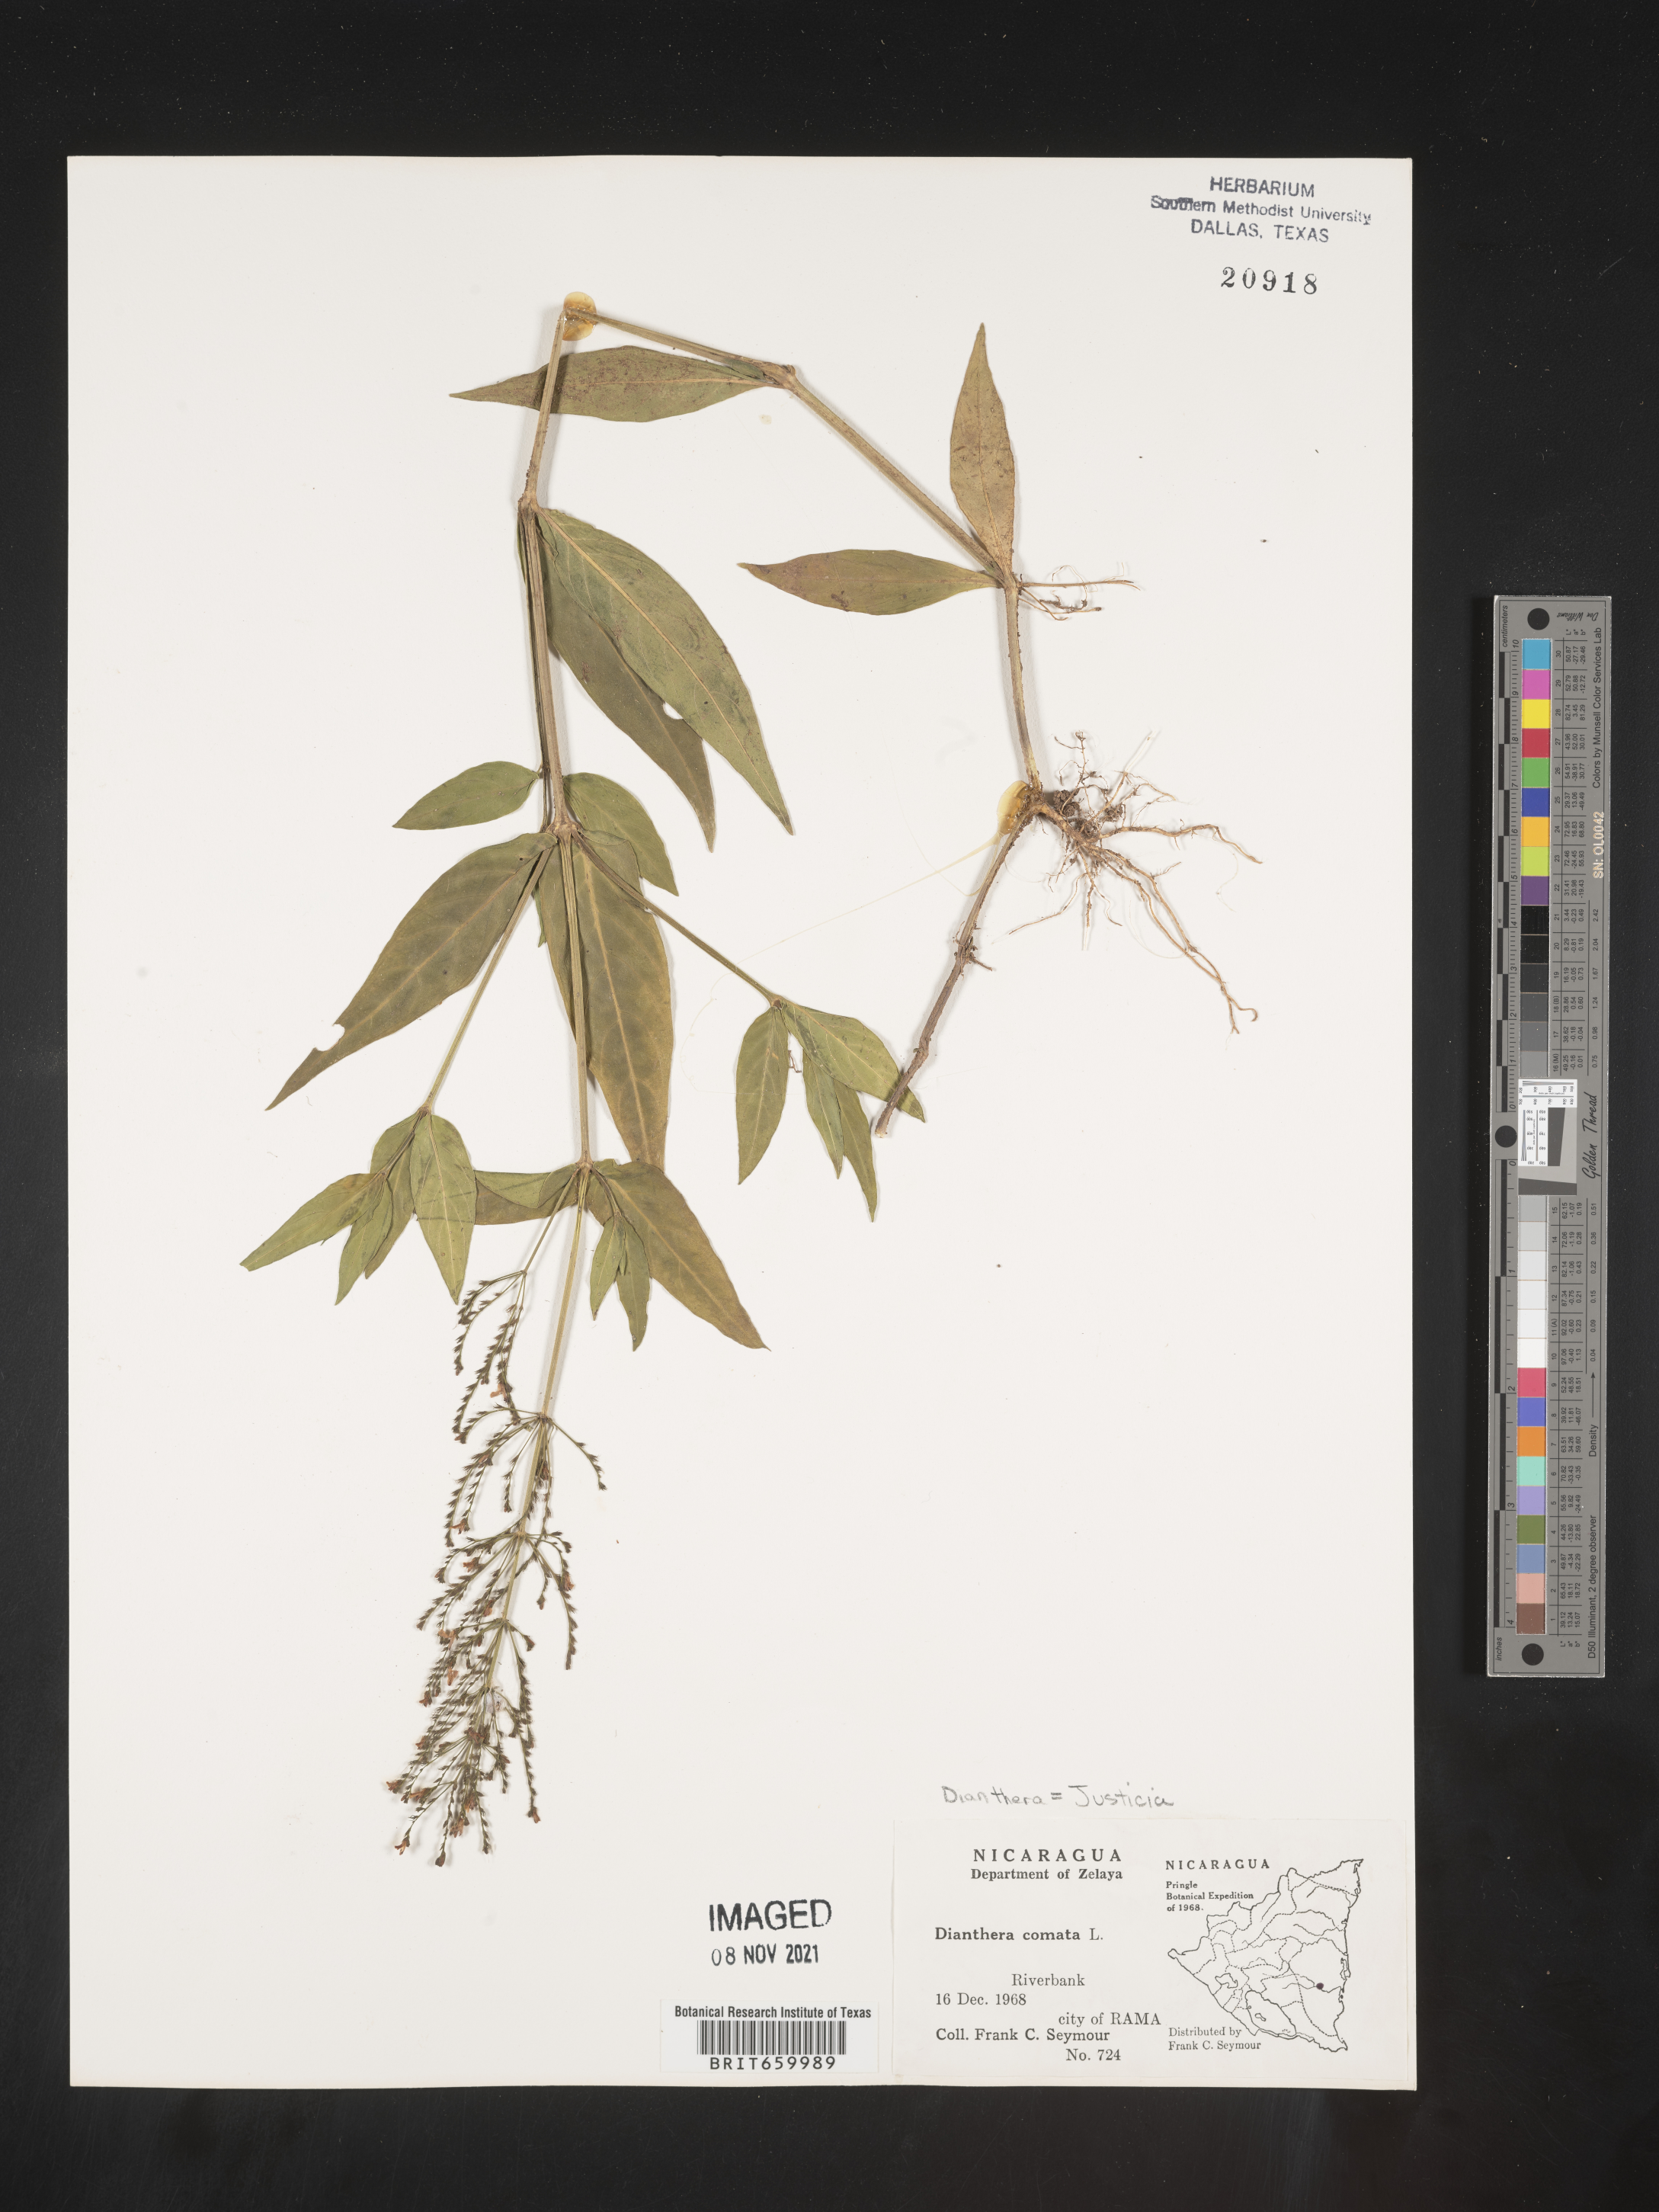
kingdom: Plantae
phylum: Tracheophyta
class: Magnoliopsida
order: Lamiales
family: Acanthaceae
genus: Justicia
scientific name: Justicia
